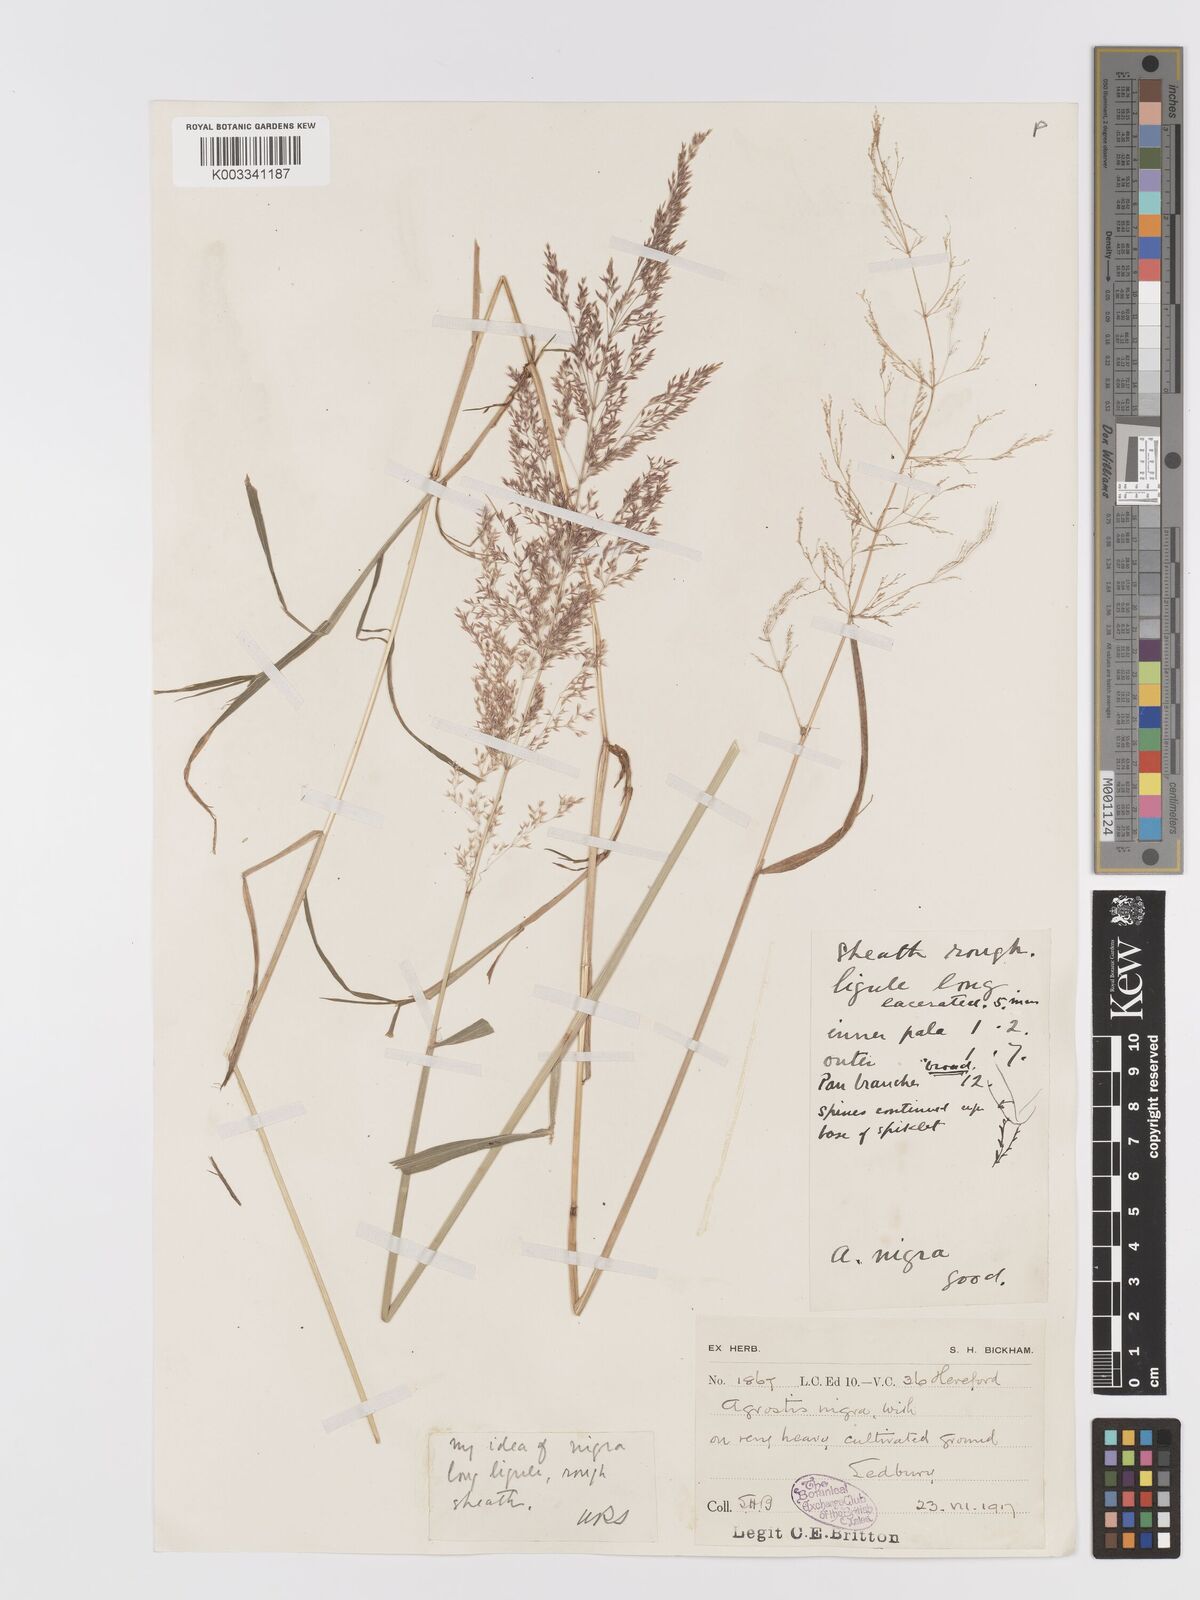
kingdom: Plantae
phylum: Tracheophyta
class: Liliopsida
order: Poales
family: Poaceae
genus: Agrostis
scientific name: Agrostis gigantea
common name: Black bent
